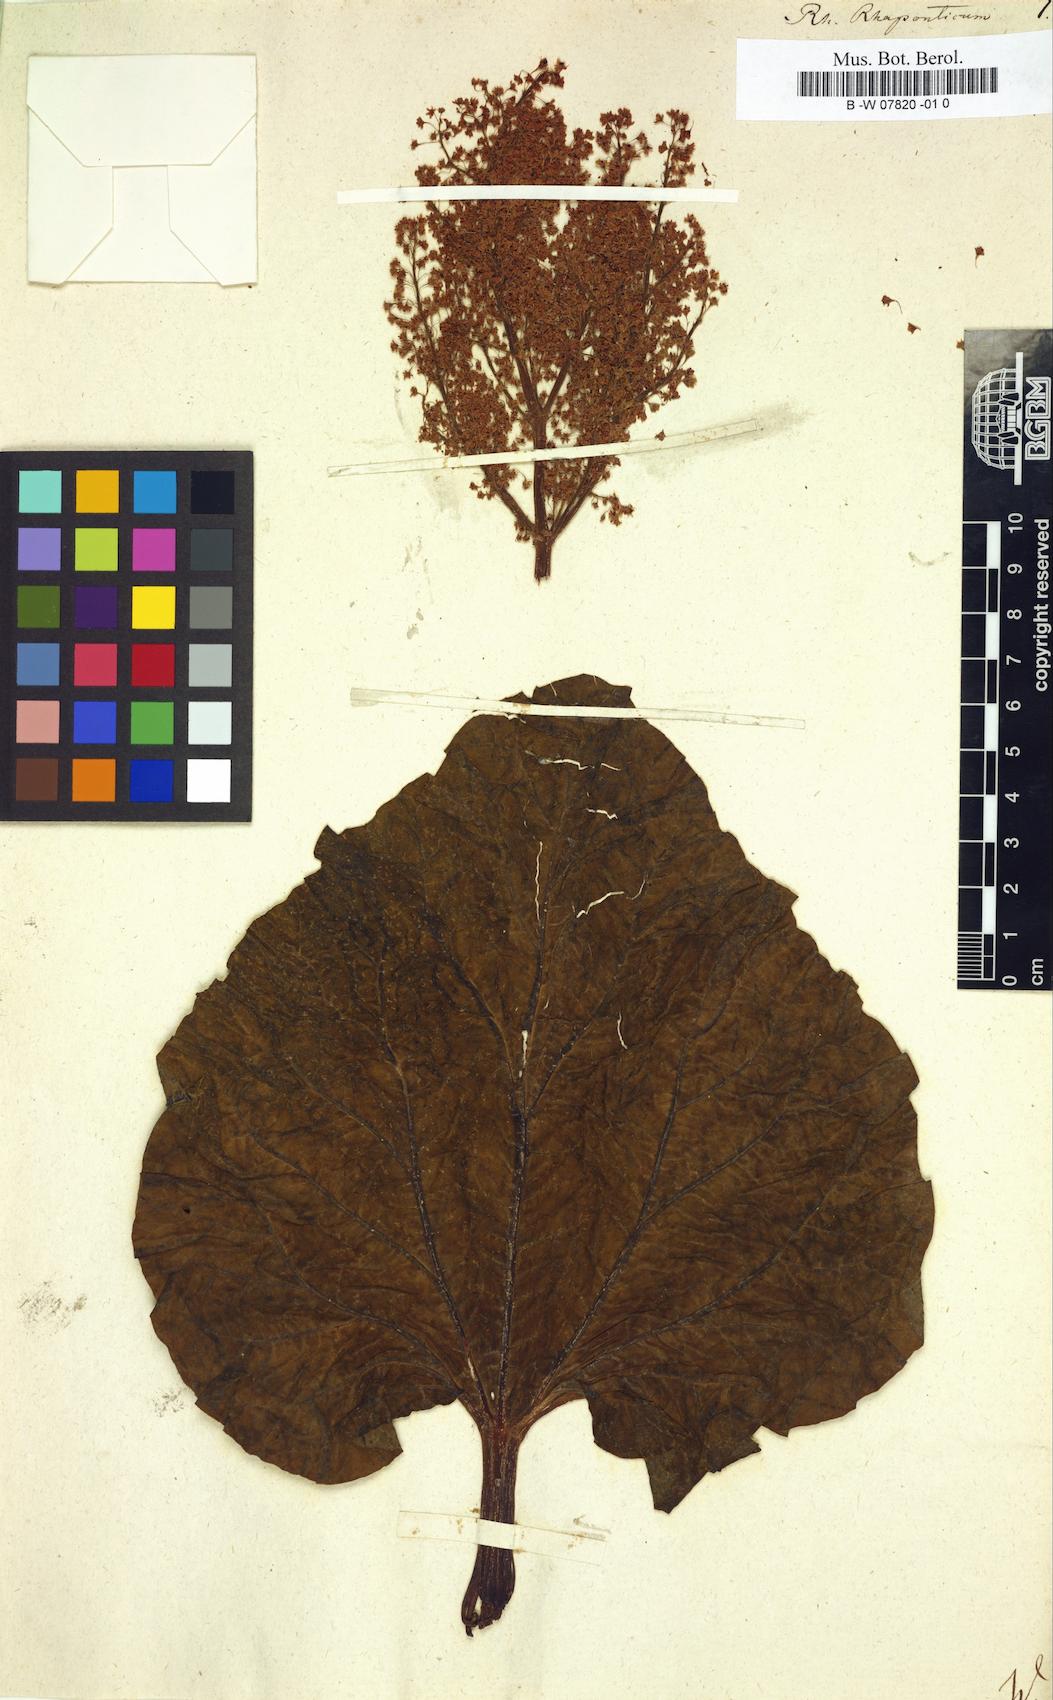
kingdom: Plantae
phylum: Tracheophyta
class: Magnoliopsida
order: Caryophyllales
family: Polygonaceae
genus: Rheum
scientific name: Rheum rhaponticum
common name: Rhubarb
